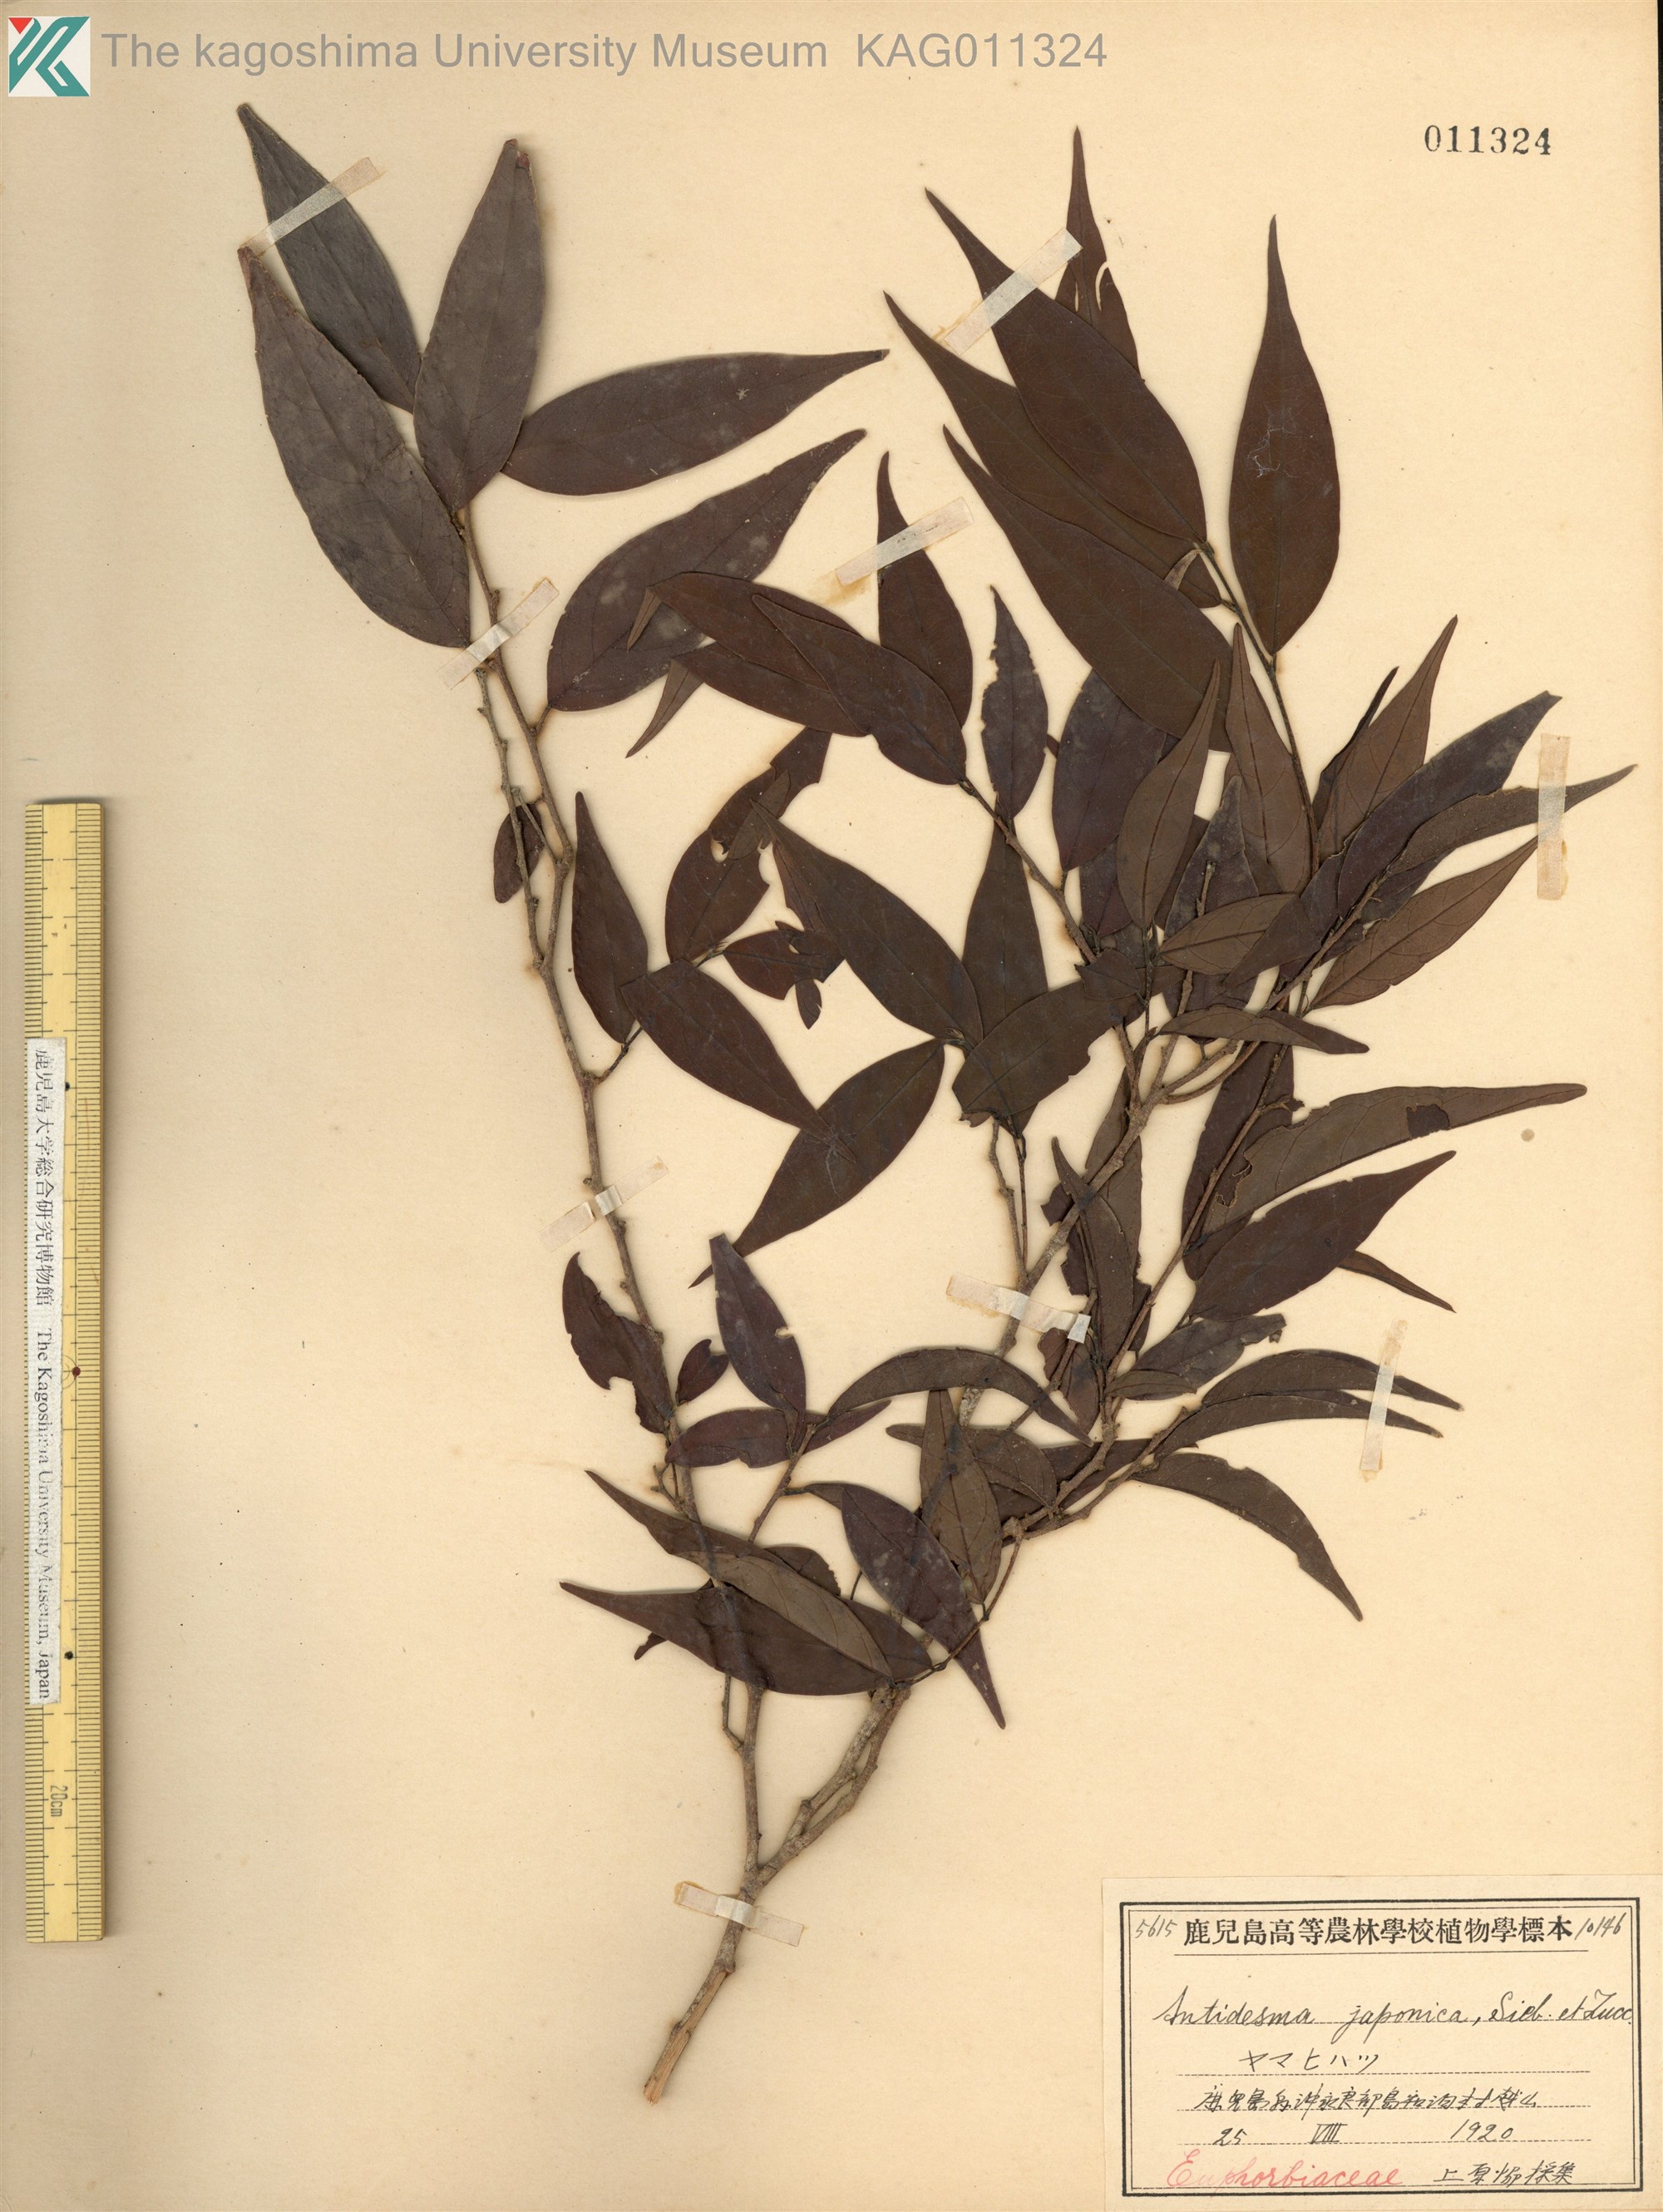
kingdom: Plantae
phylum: Tracheophyta
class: Magnoliopsida
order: Malpighiales
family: Phyllanthaceae
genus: Antidesma
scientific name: Antidesma japonicum
